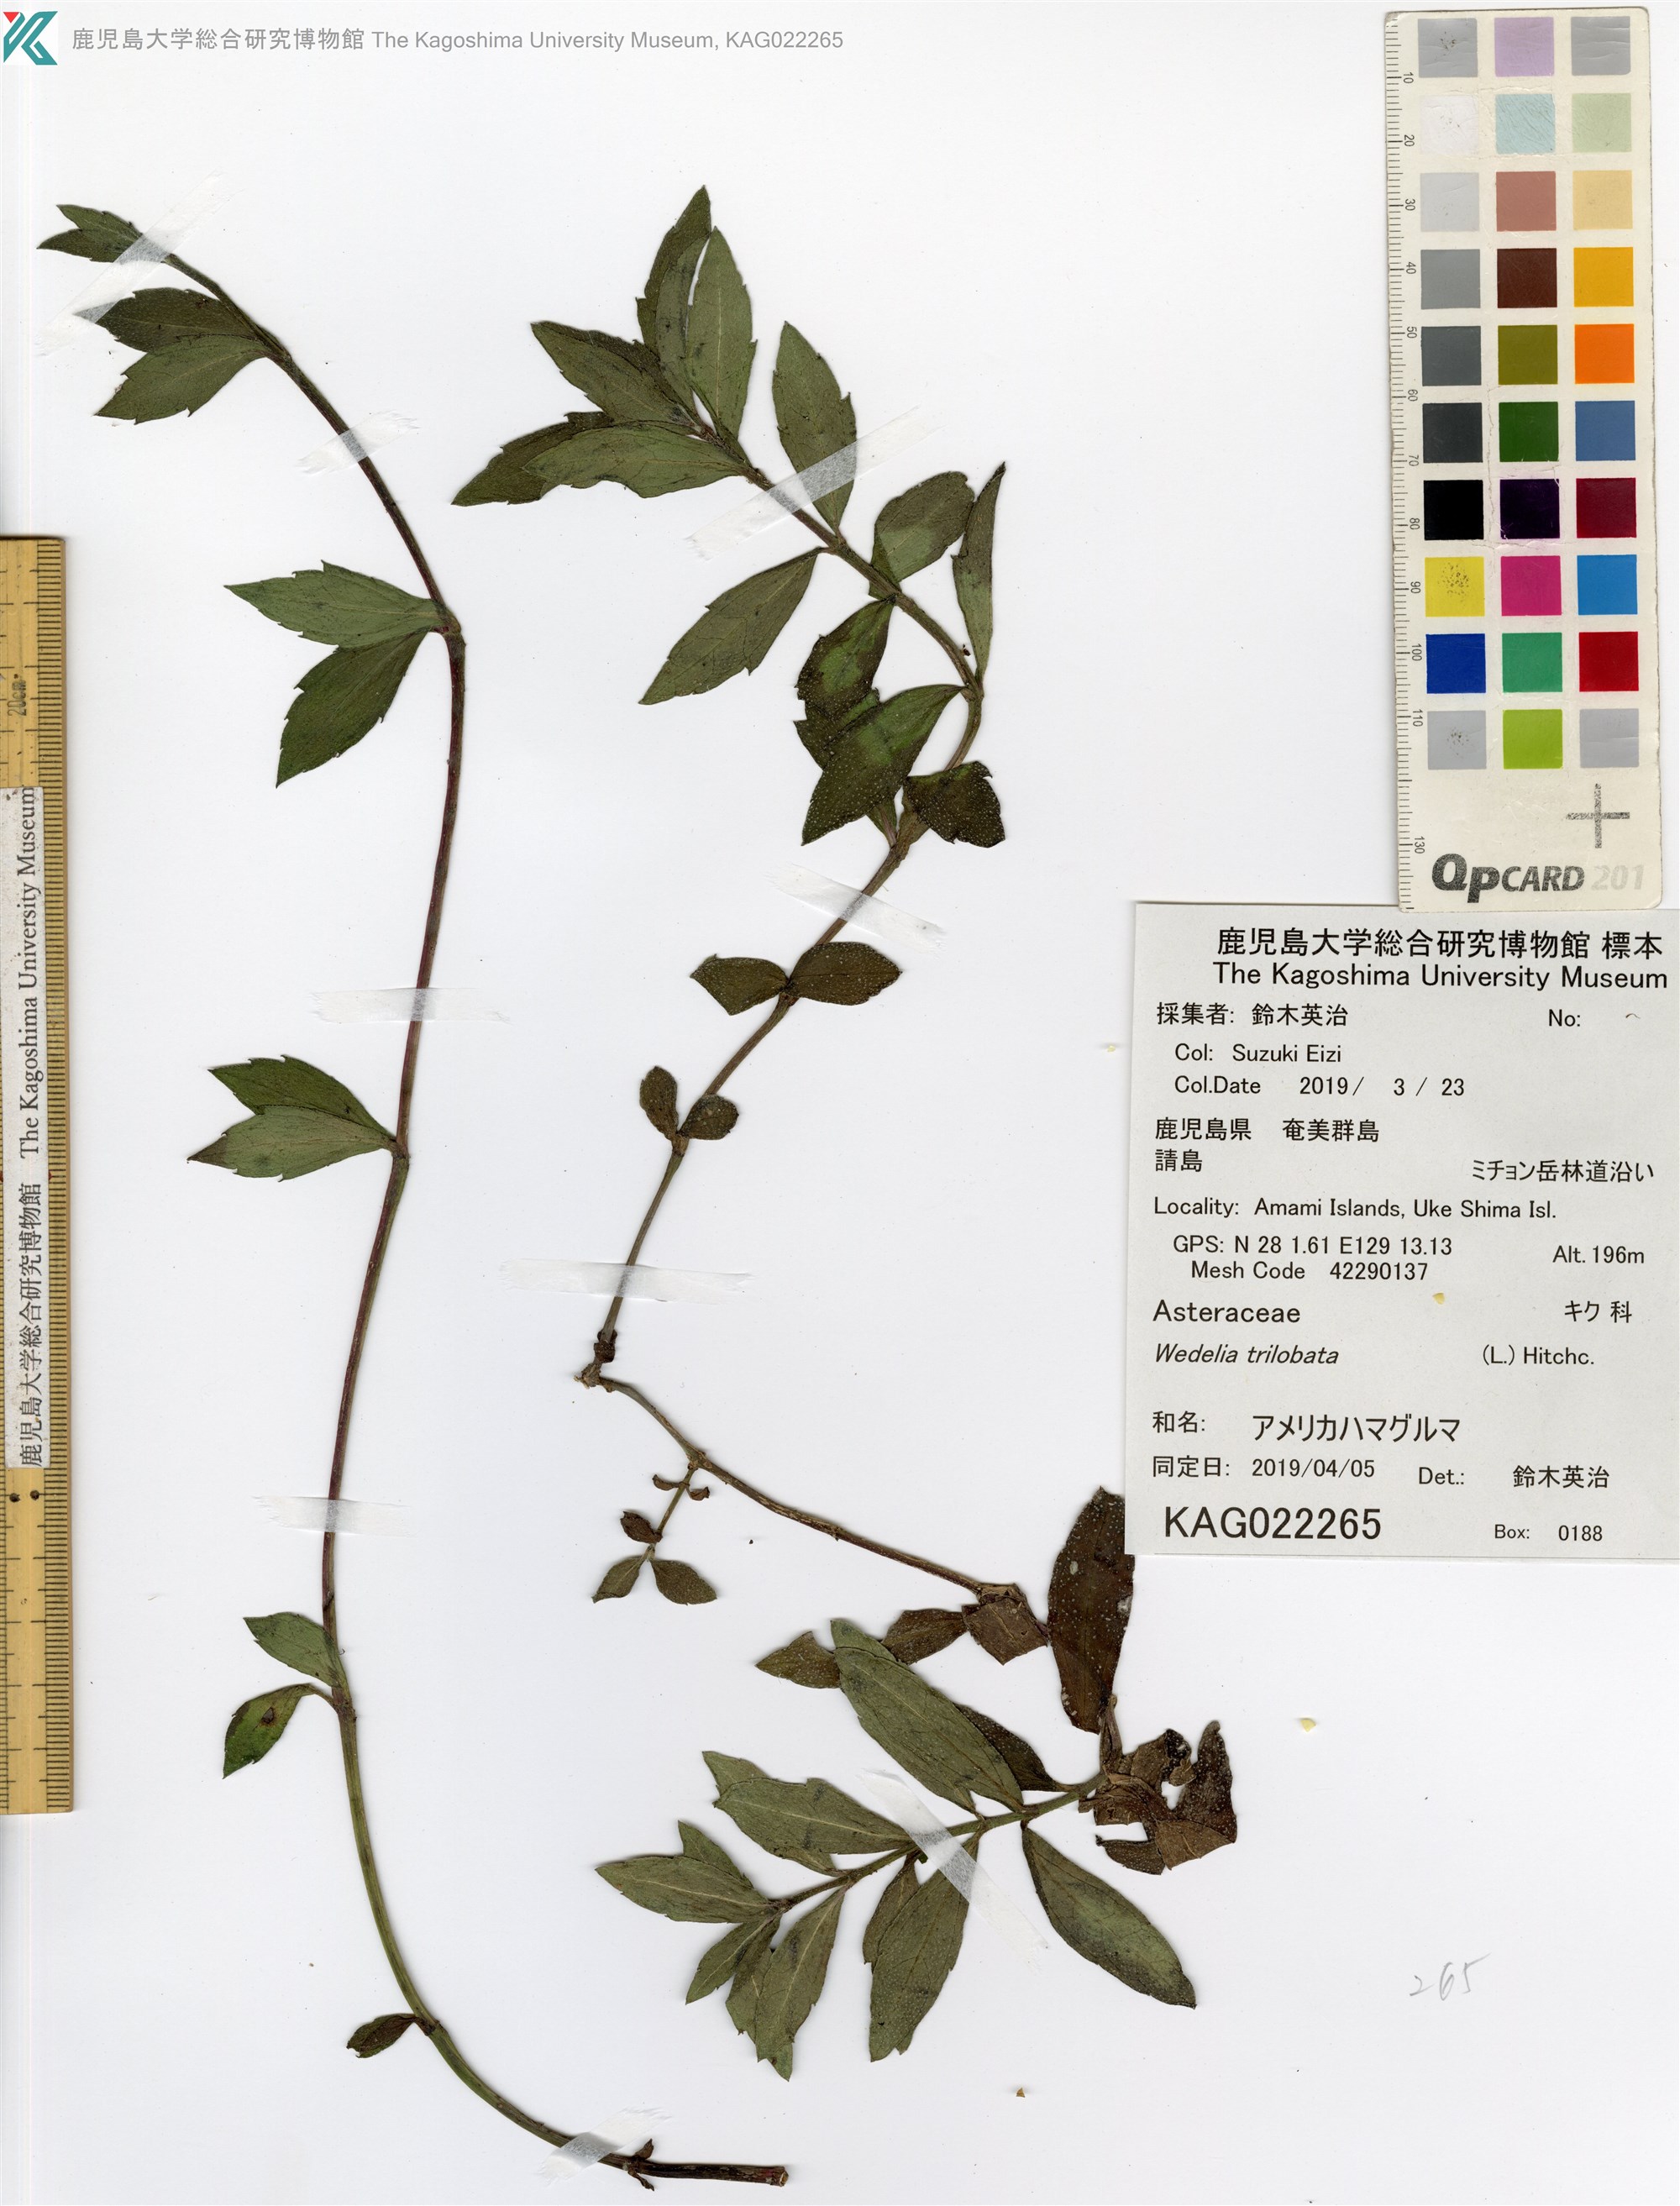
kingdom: Plantae
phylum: Tracheophyta
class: Magnoliopsida
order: Asterales
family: Asteraceae
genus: Sphagneticola
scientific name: Sphagneticola trilobata
